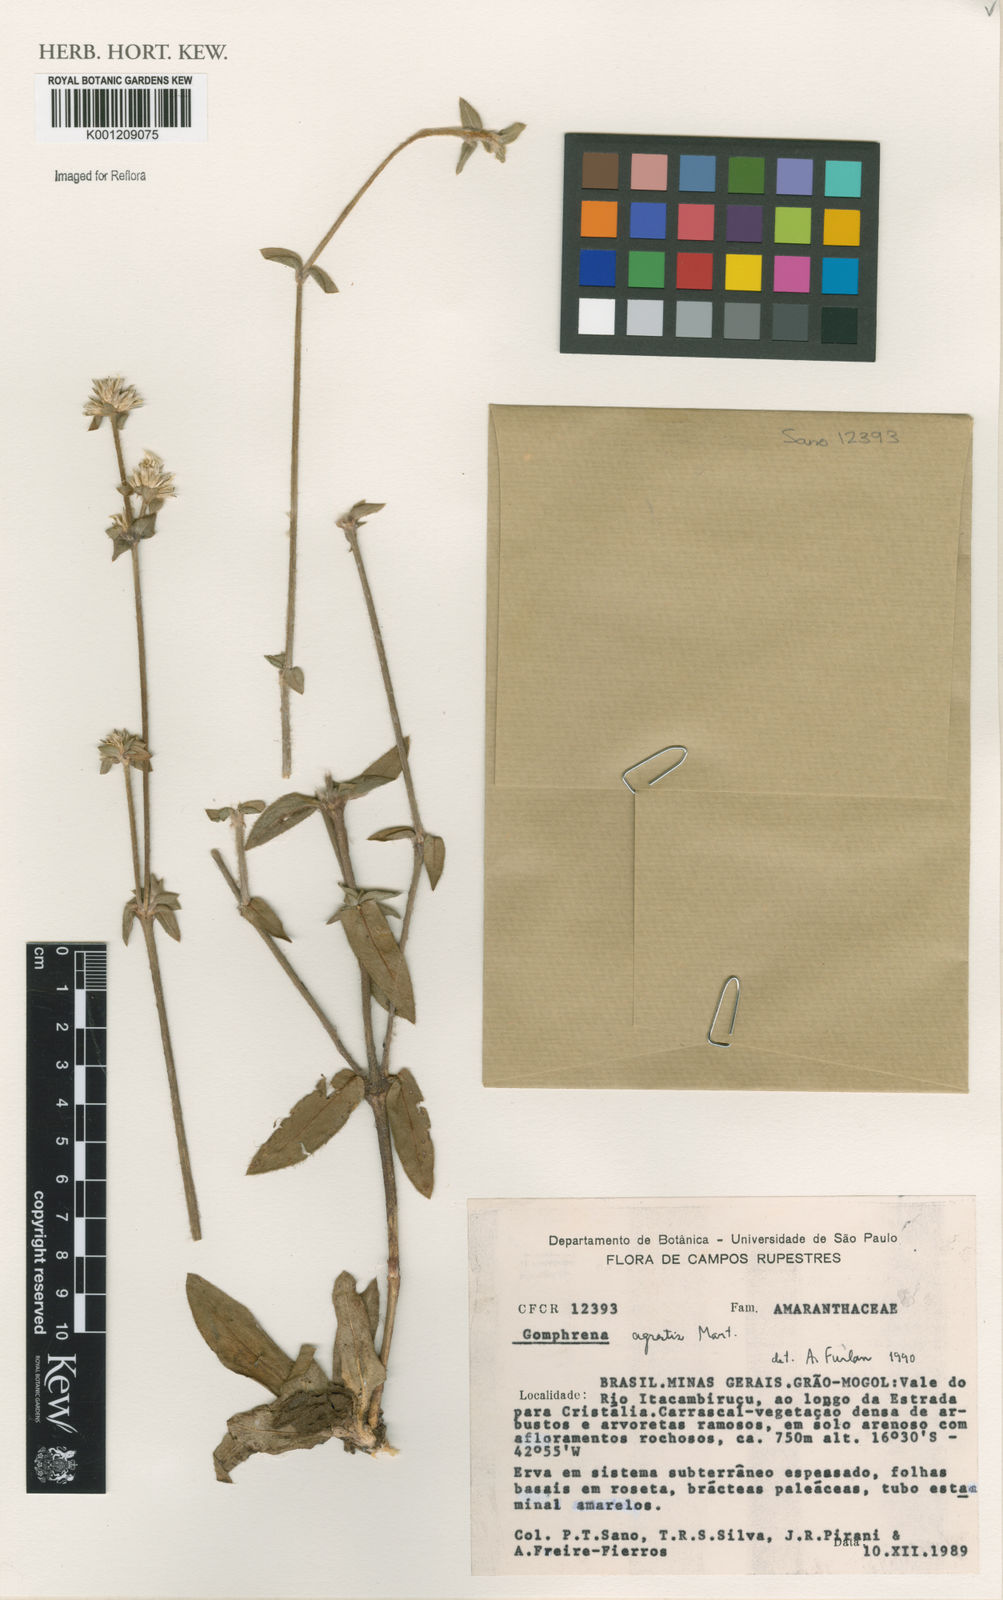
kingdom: Plantae
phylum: Tracheophyta
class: Magnoliopsida
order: Caryophyllales
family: Amaranthaceae
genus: Gomphrena
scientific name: Gomphrena agrestis
